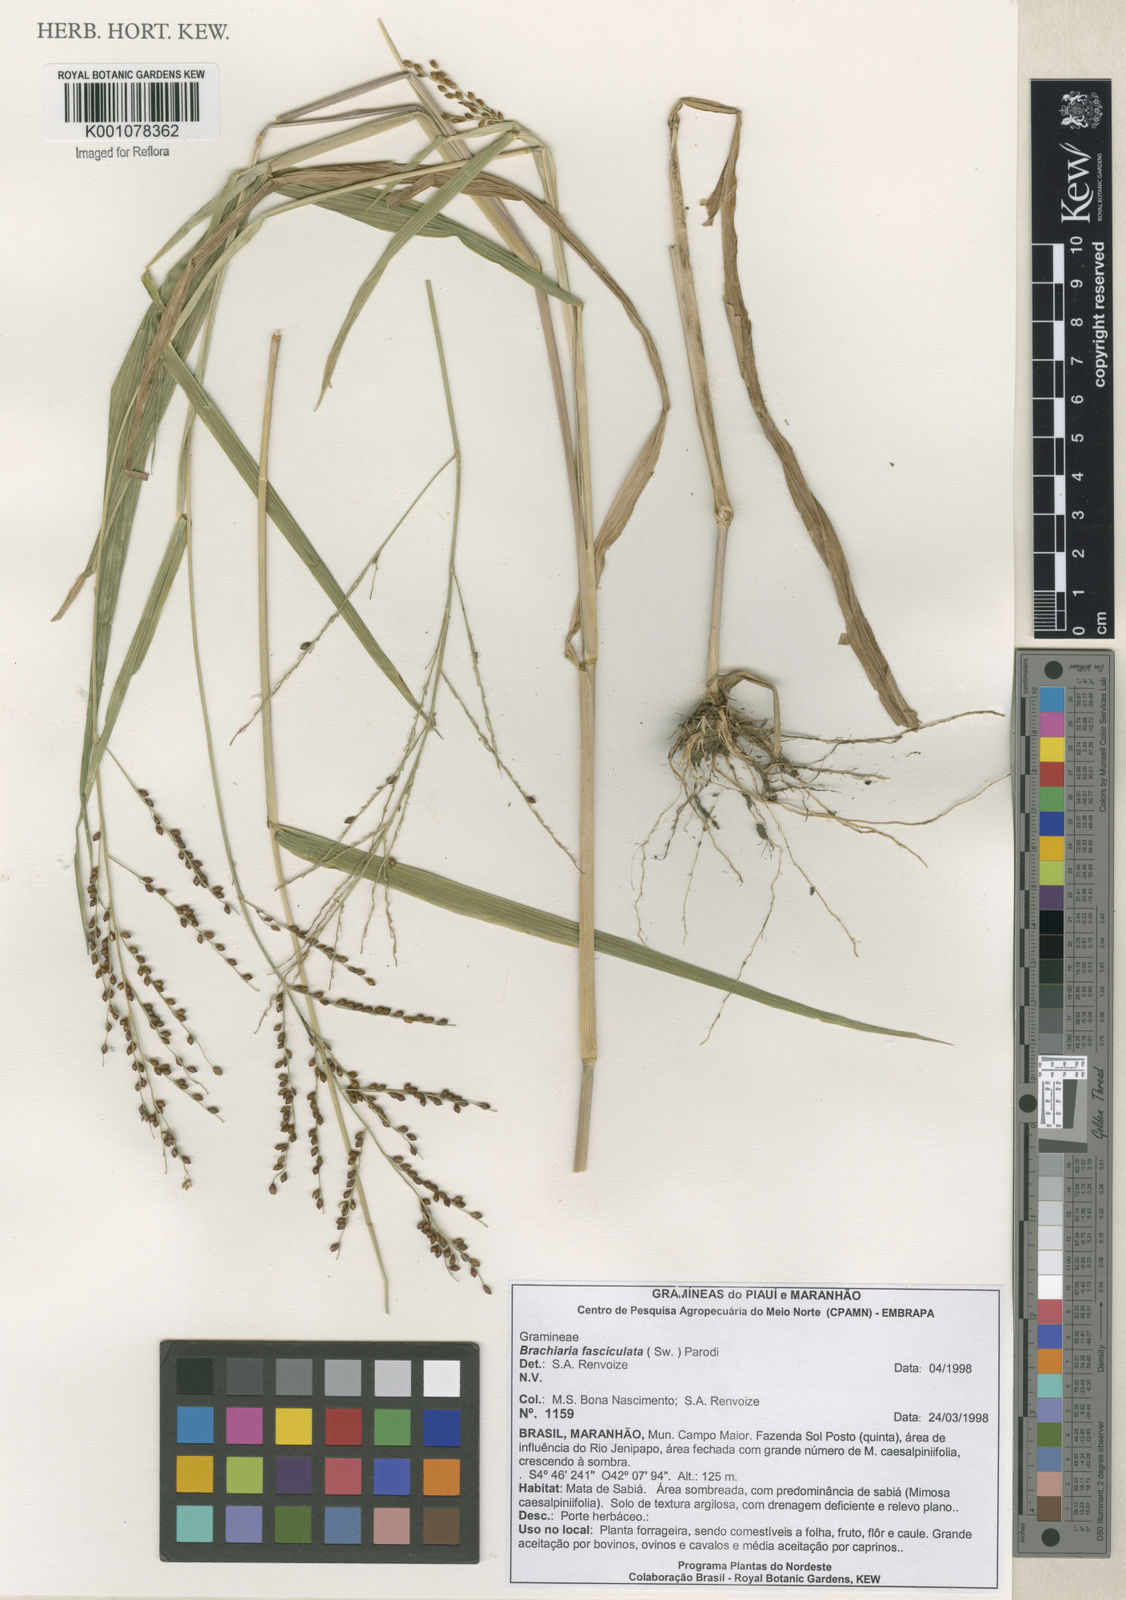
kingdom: Plantae
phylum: Tracheophyta
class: Liliopsida
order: Poales
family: Poaceae
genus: Urochloa
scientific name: Urochloa fusca
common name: Browntop signal grass
